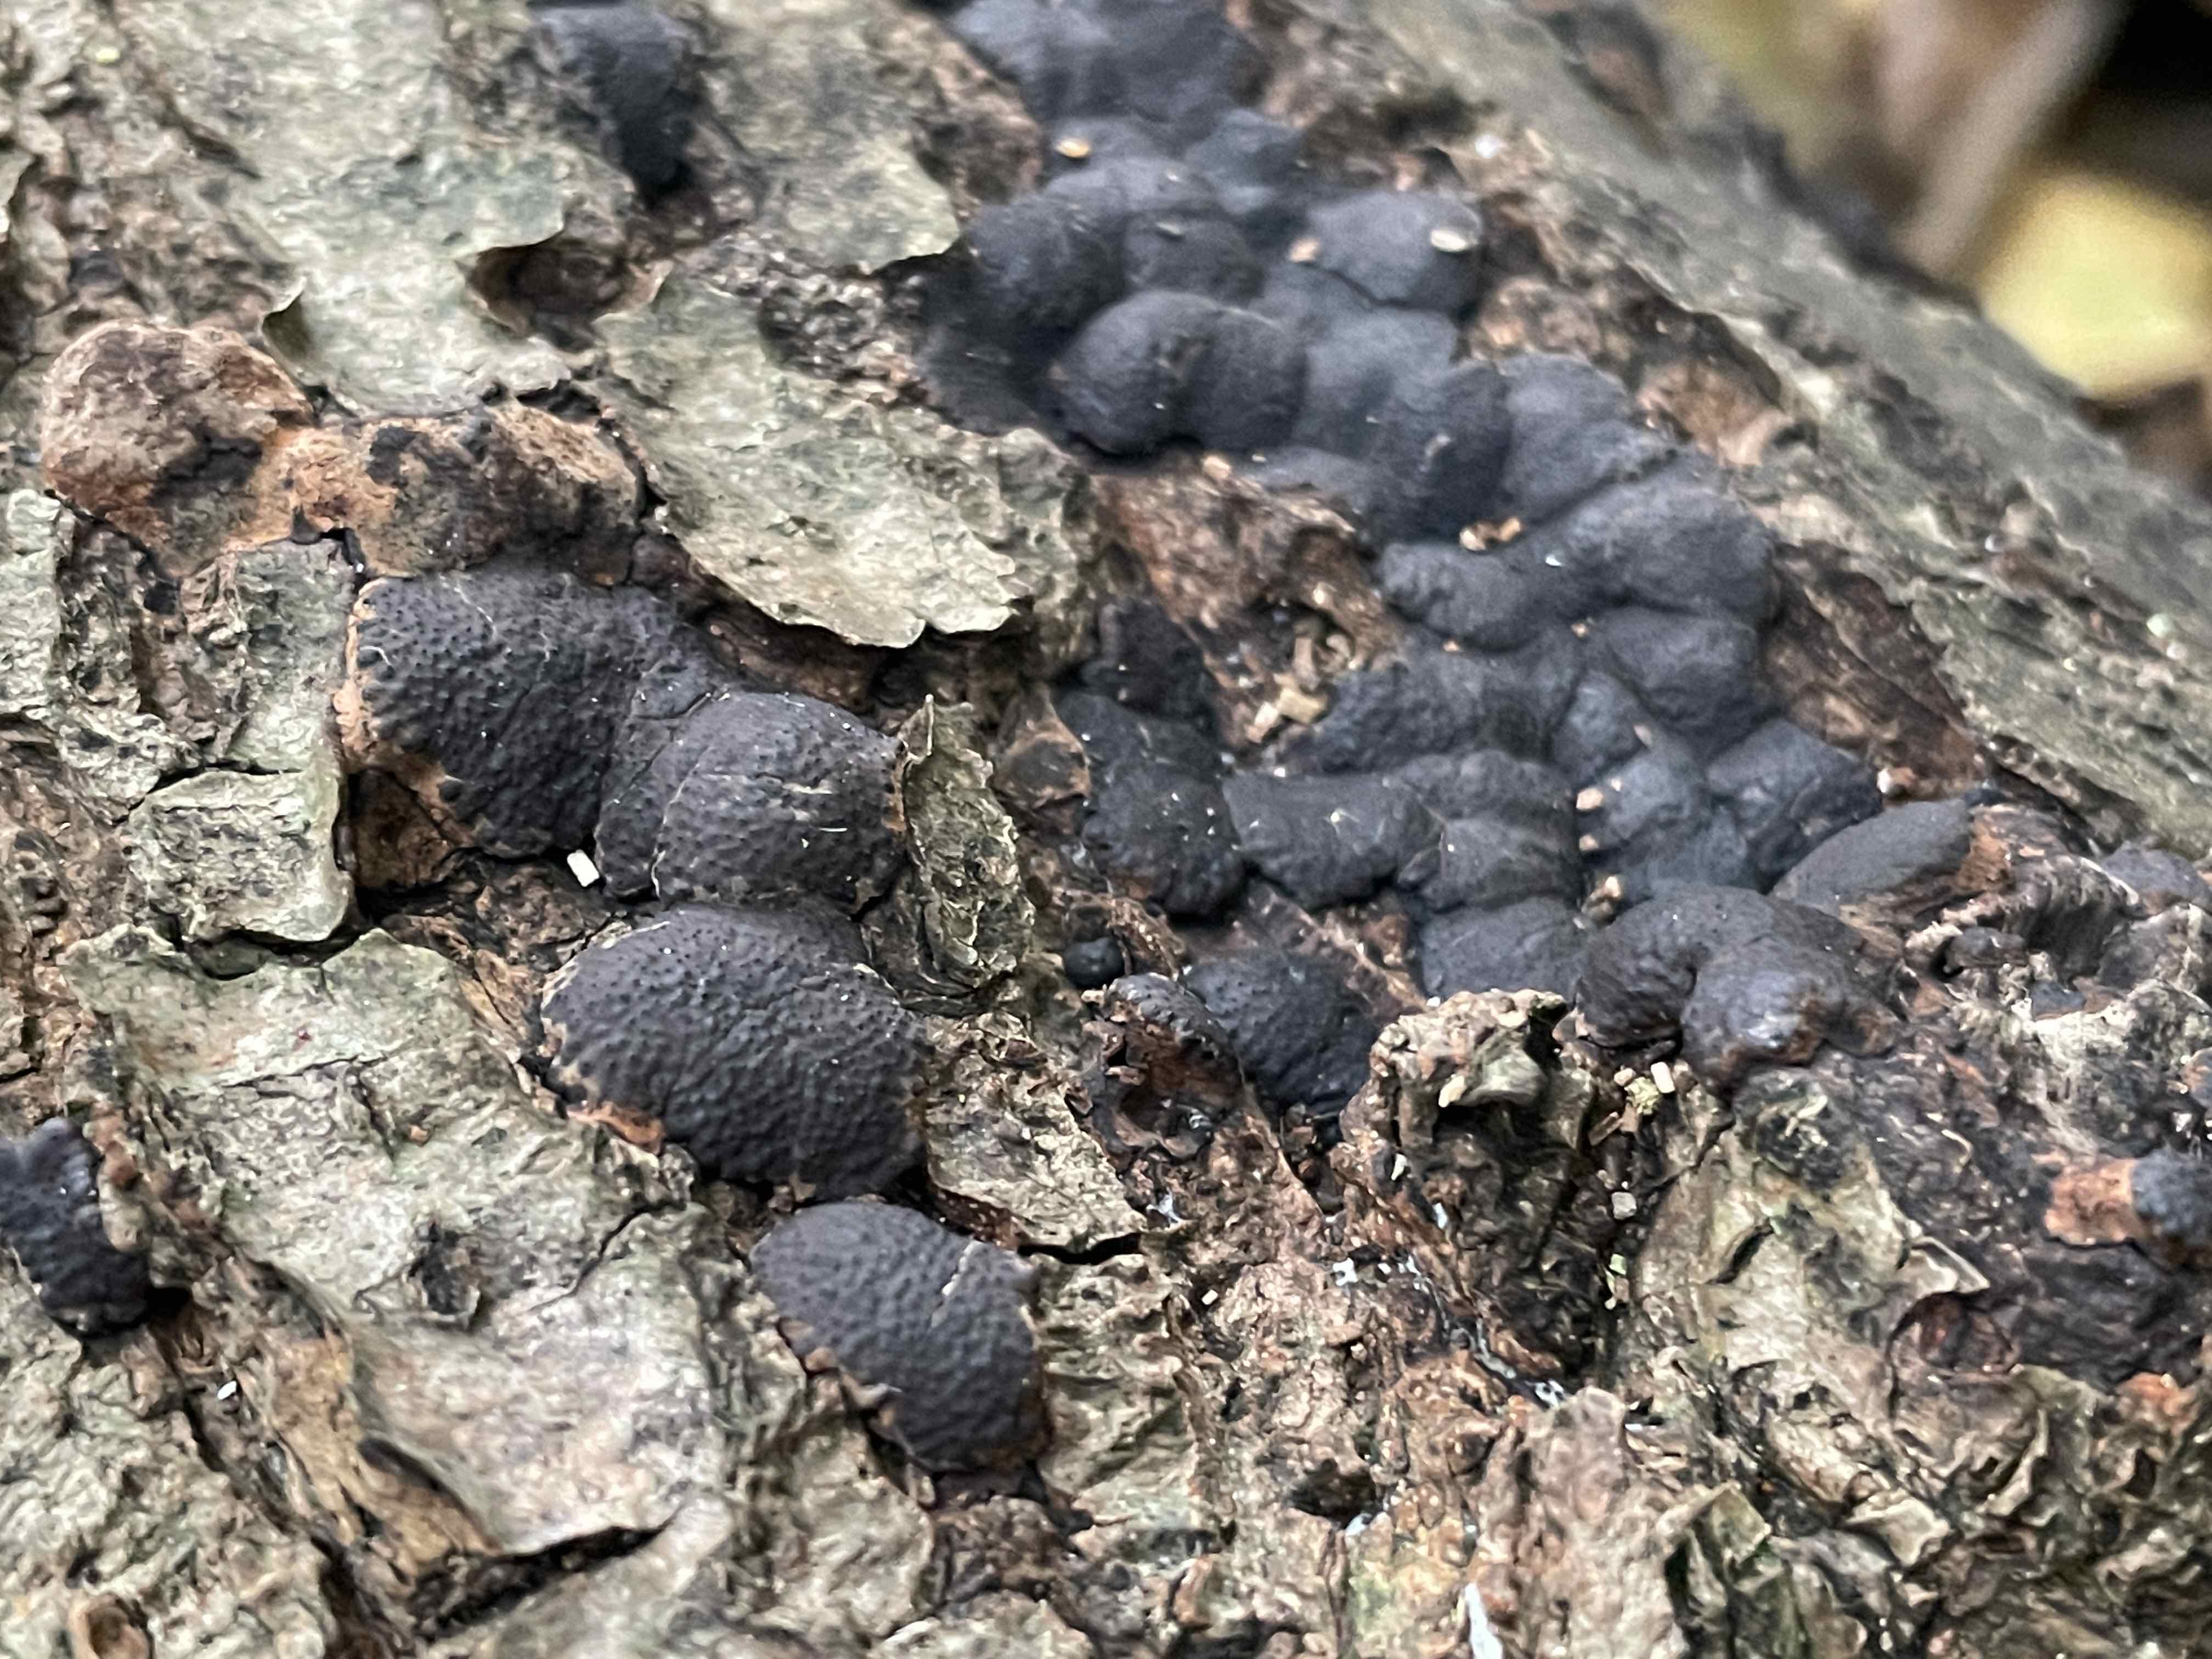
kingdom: Fungi
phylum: Ascomycota
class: Sordariomycetes
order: Xylariales
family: Hypoxylaceae
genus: Jackrogersella
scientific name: Jackrogersella minutella
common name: ege-kulbær
